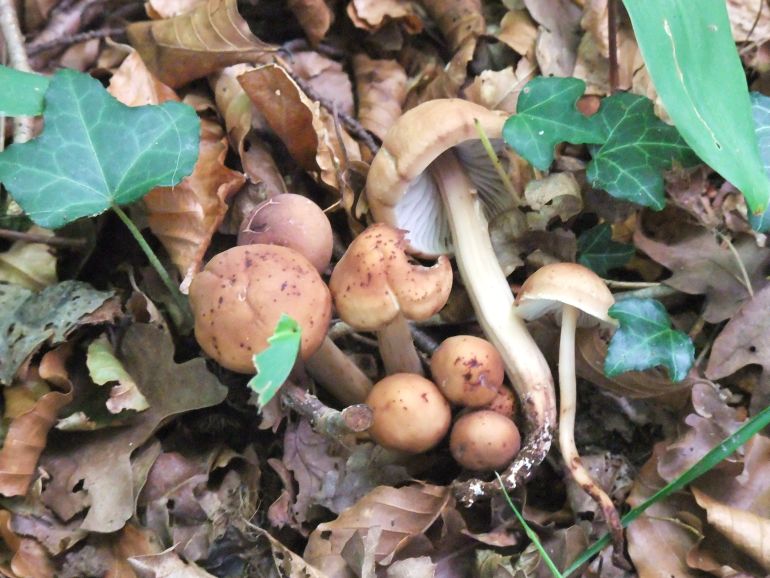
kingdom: Fungi
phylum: Basidiomycota
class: Agaricomycetes
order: Agaricales
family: Omphalotaceae
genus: Gymnopus
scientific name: Gymnopus fusipes
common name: tenstokket fladhat
